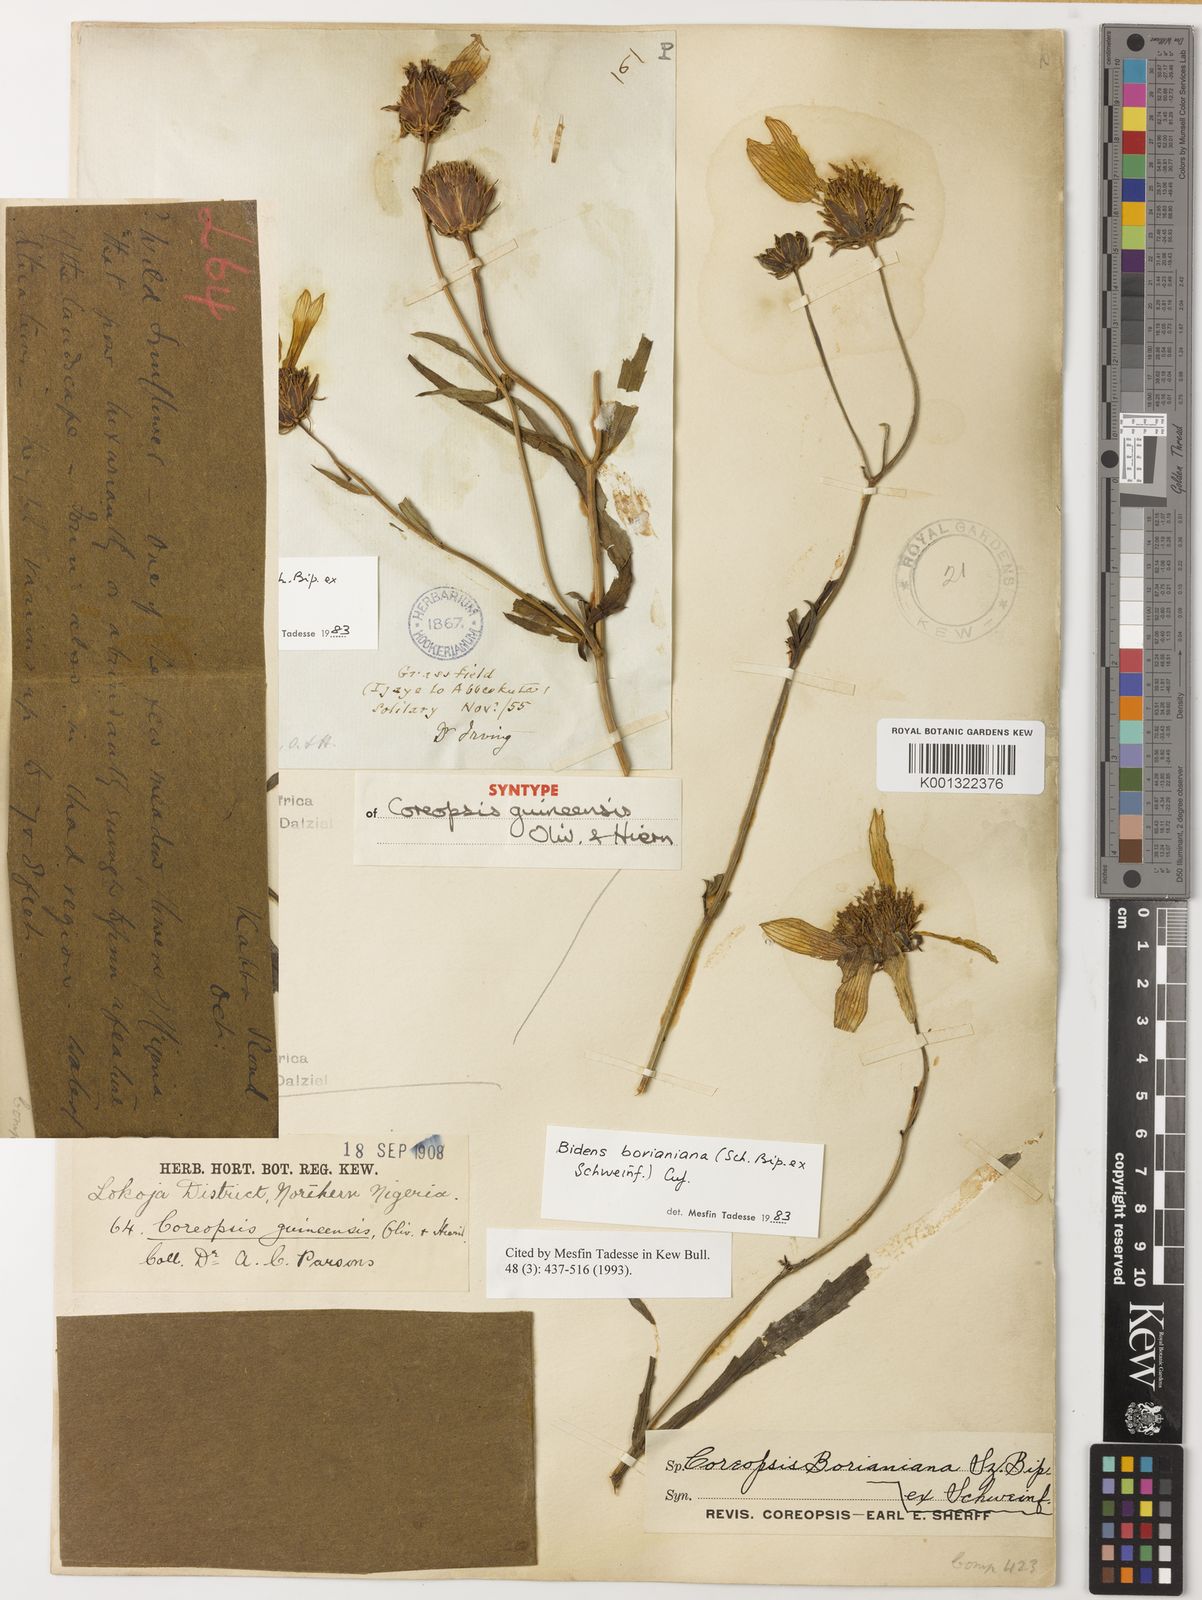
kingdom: Plantae
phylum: Tracheophyta
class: Magnoliopsida
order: Asterales
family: Asteraceae
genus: Bidens
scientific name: Bidens borianiana
